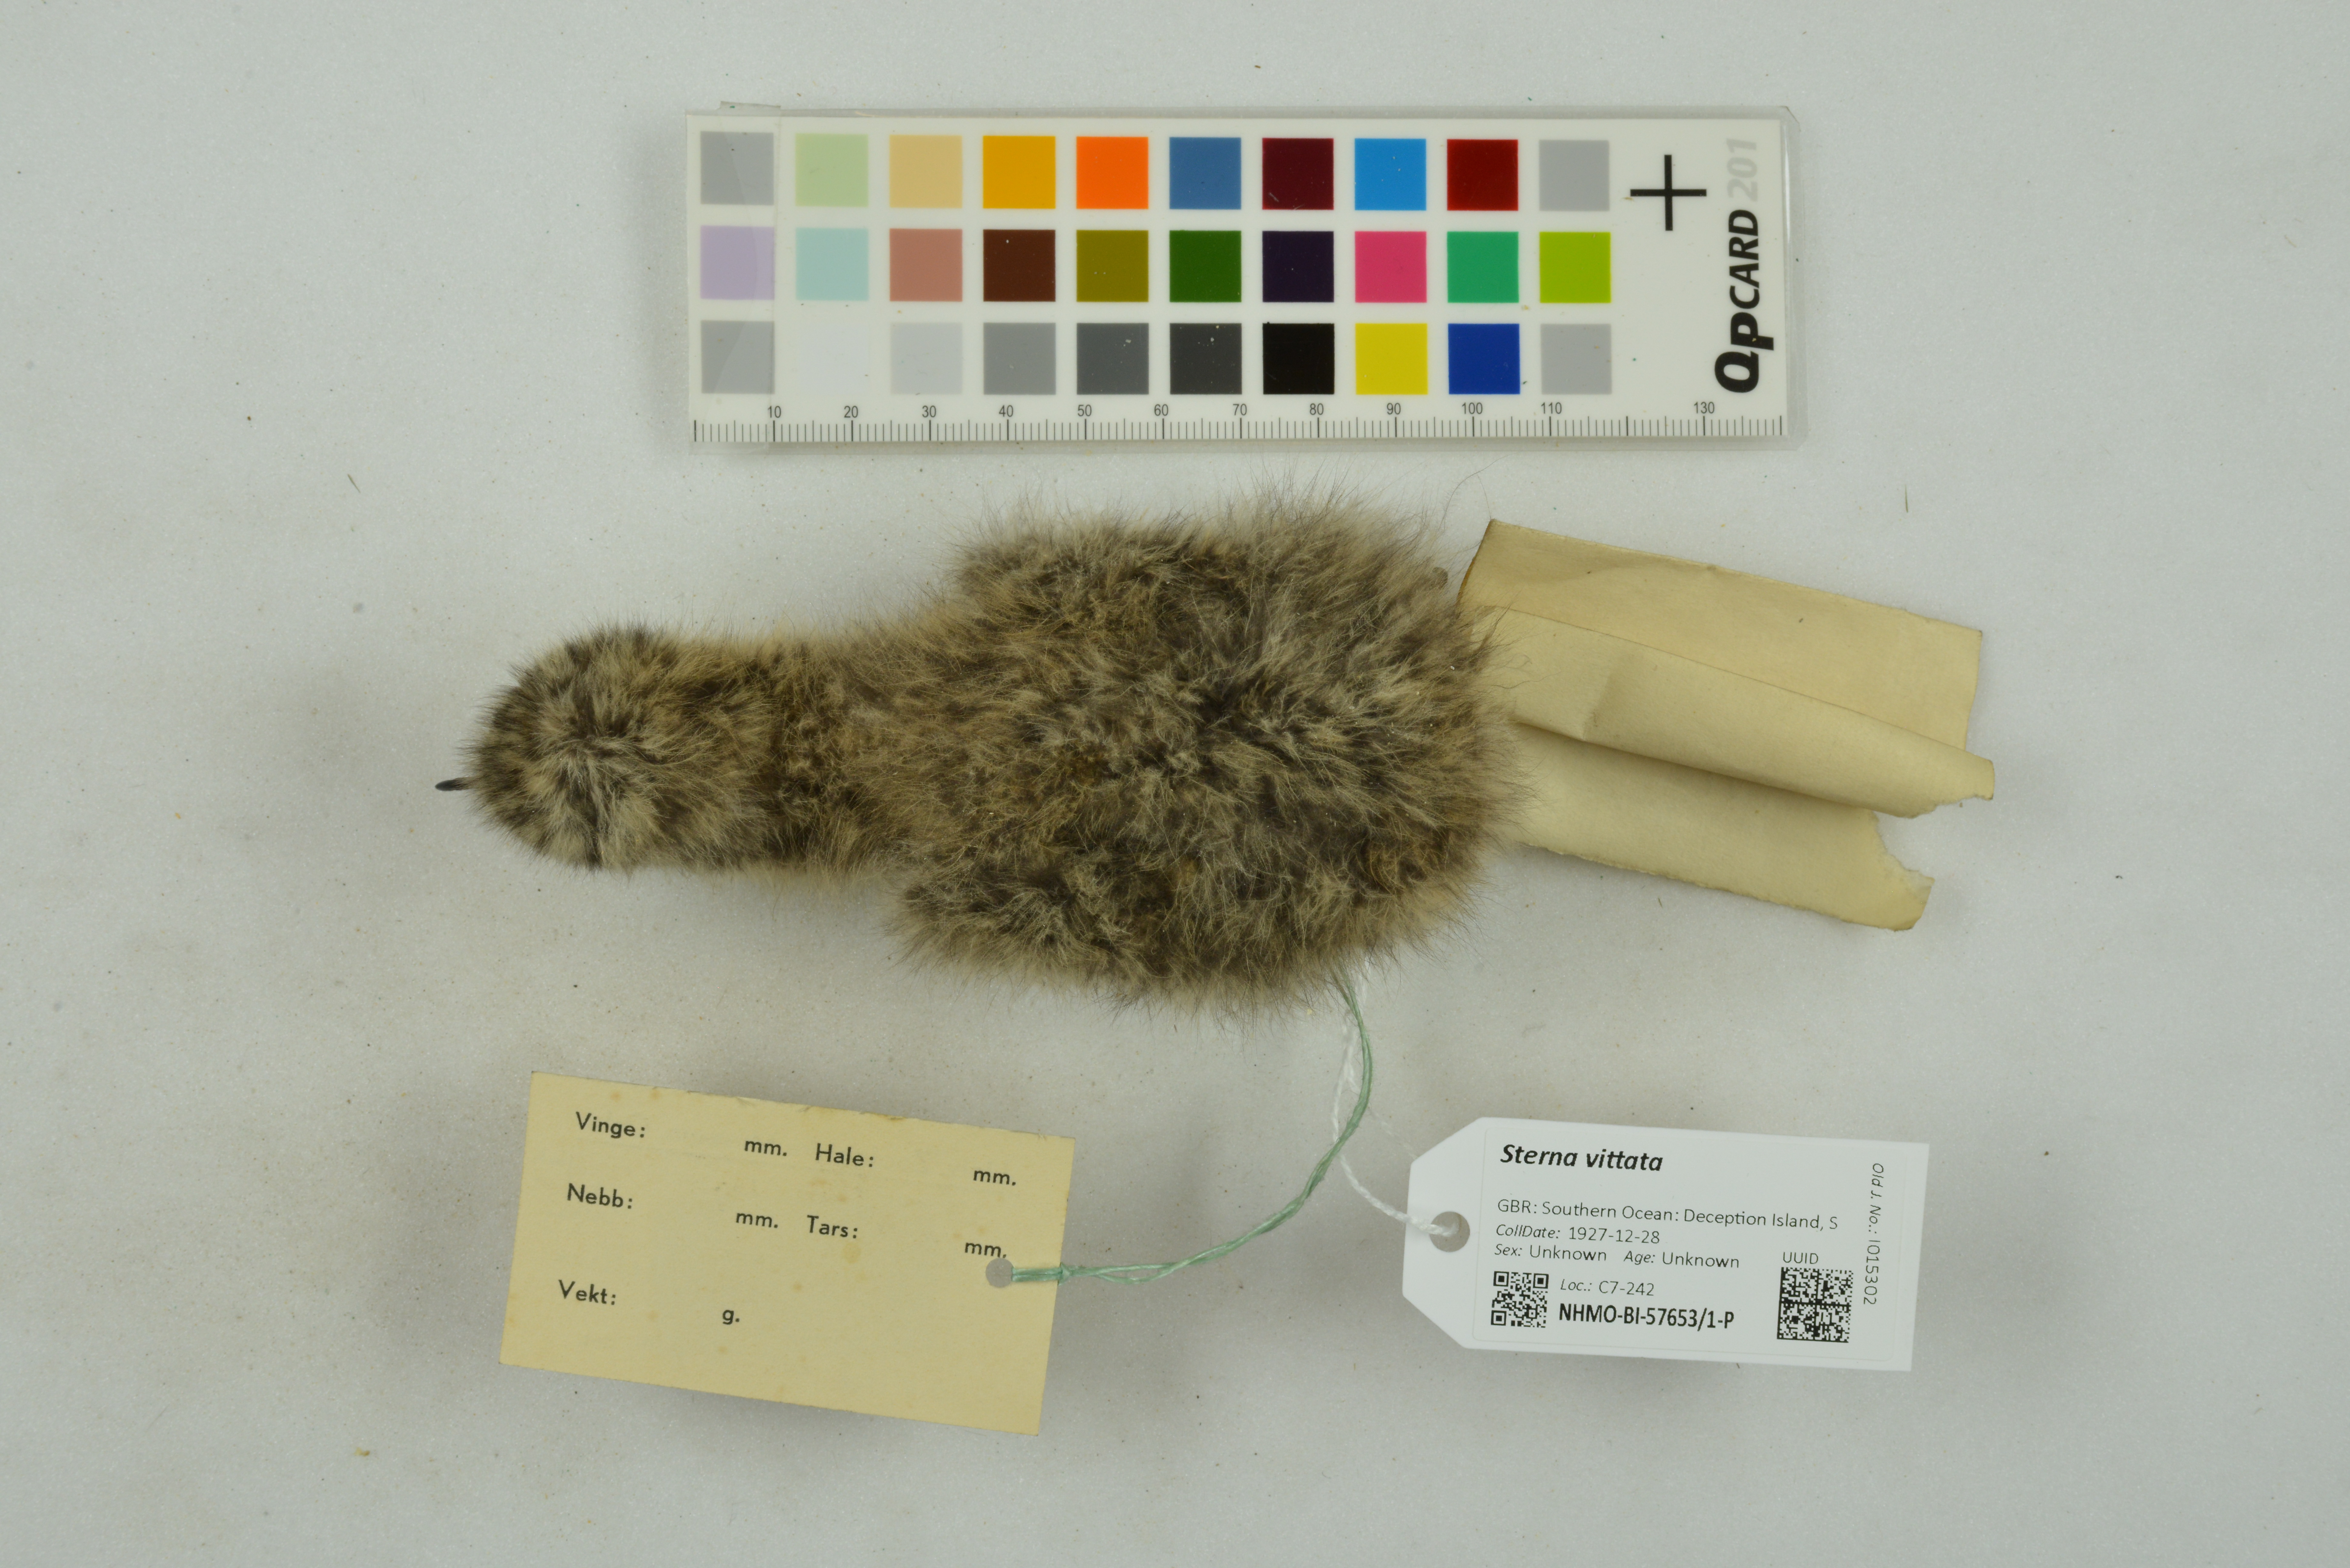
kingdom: Animalia
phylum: Chordata
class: Aves
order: Charadriiformes
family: Laridae
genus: Sterna
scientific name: Sterna vittata
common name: Antarctic tern
